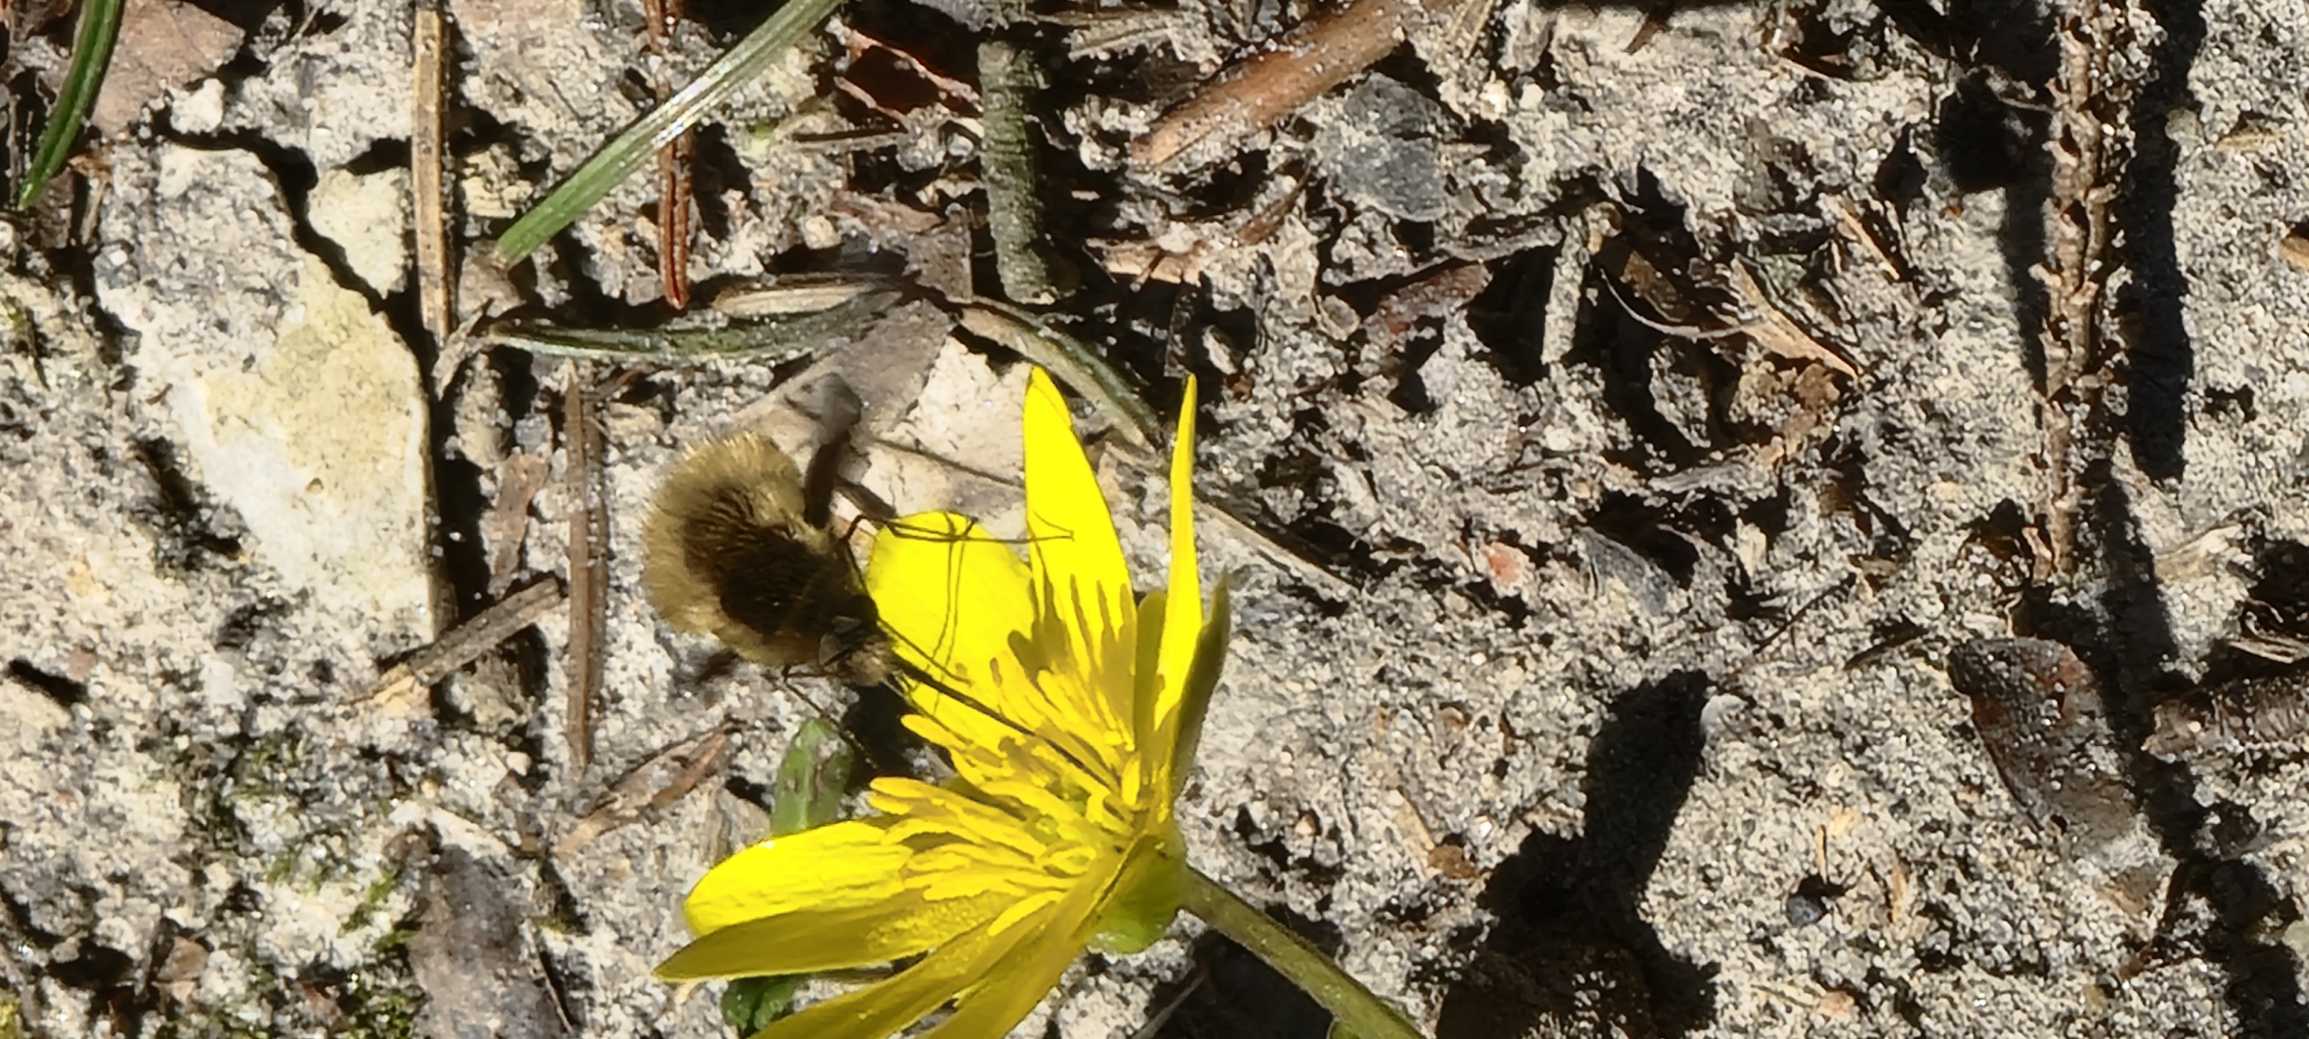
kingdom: Animalia
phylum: Arthropoda
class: Insecta
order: Diptera
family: Bombyliidae
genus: Bombylius
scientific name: Bombylius major
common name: Stor humleflue
